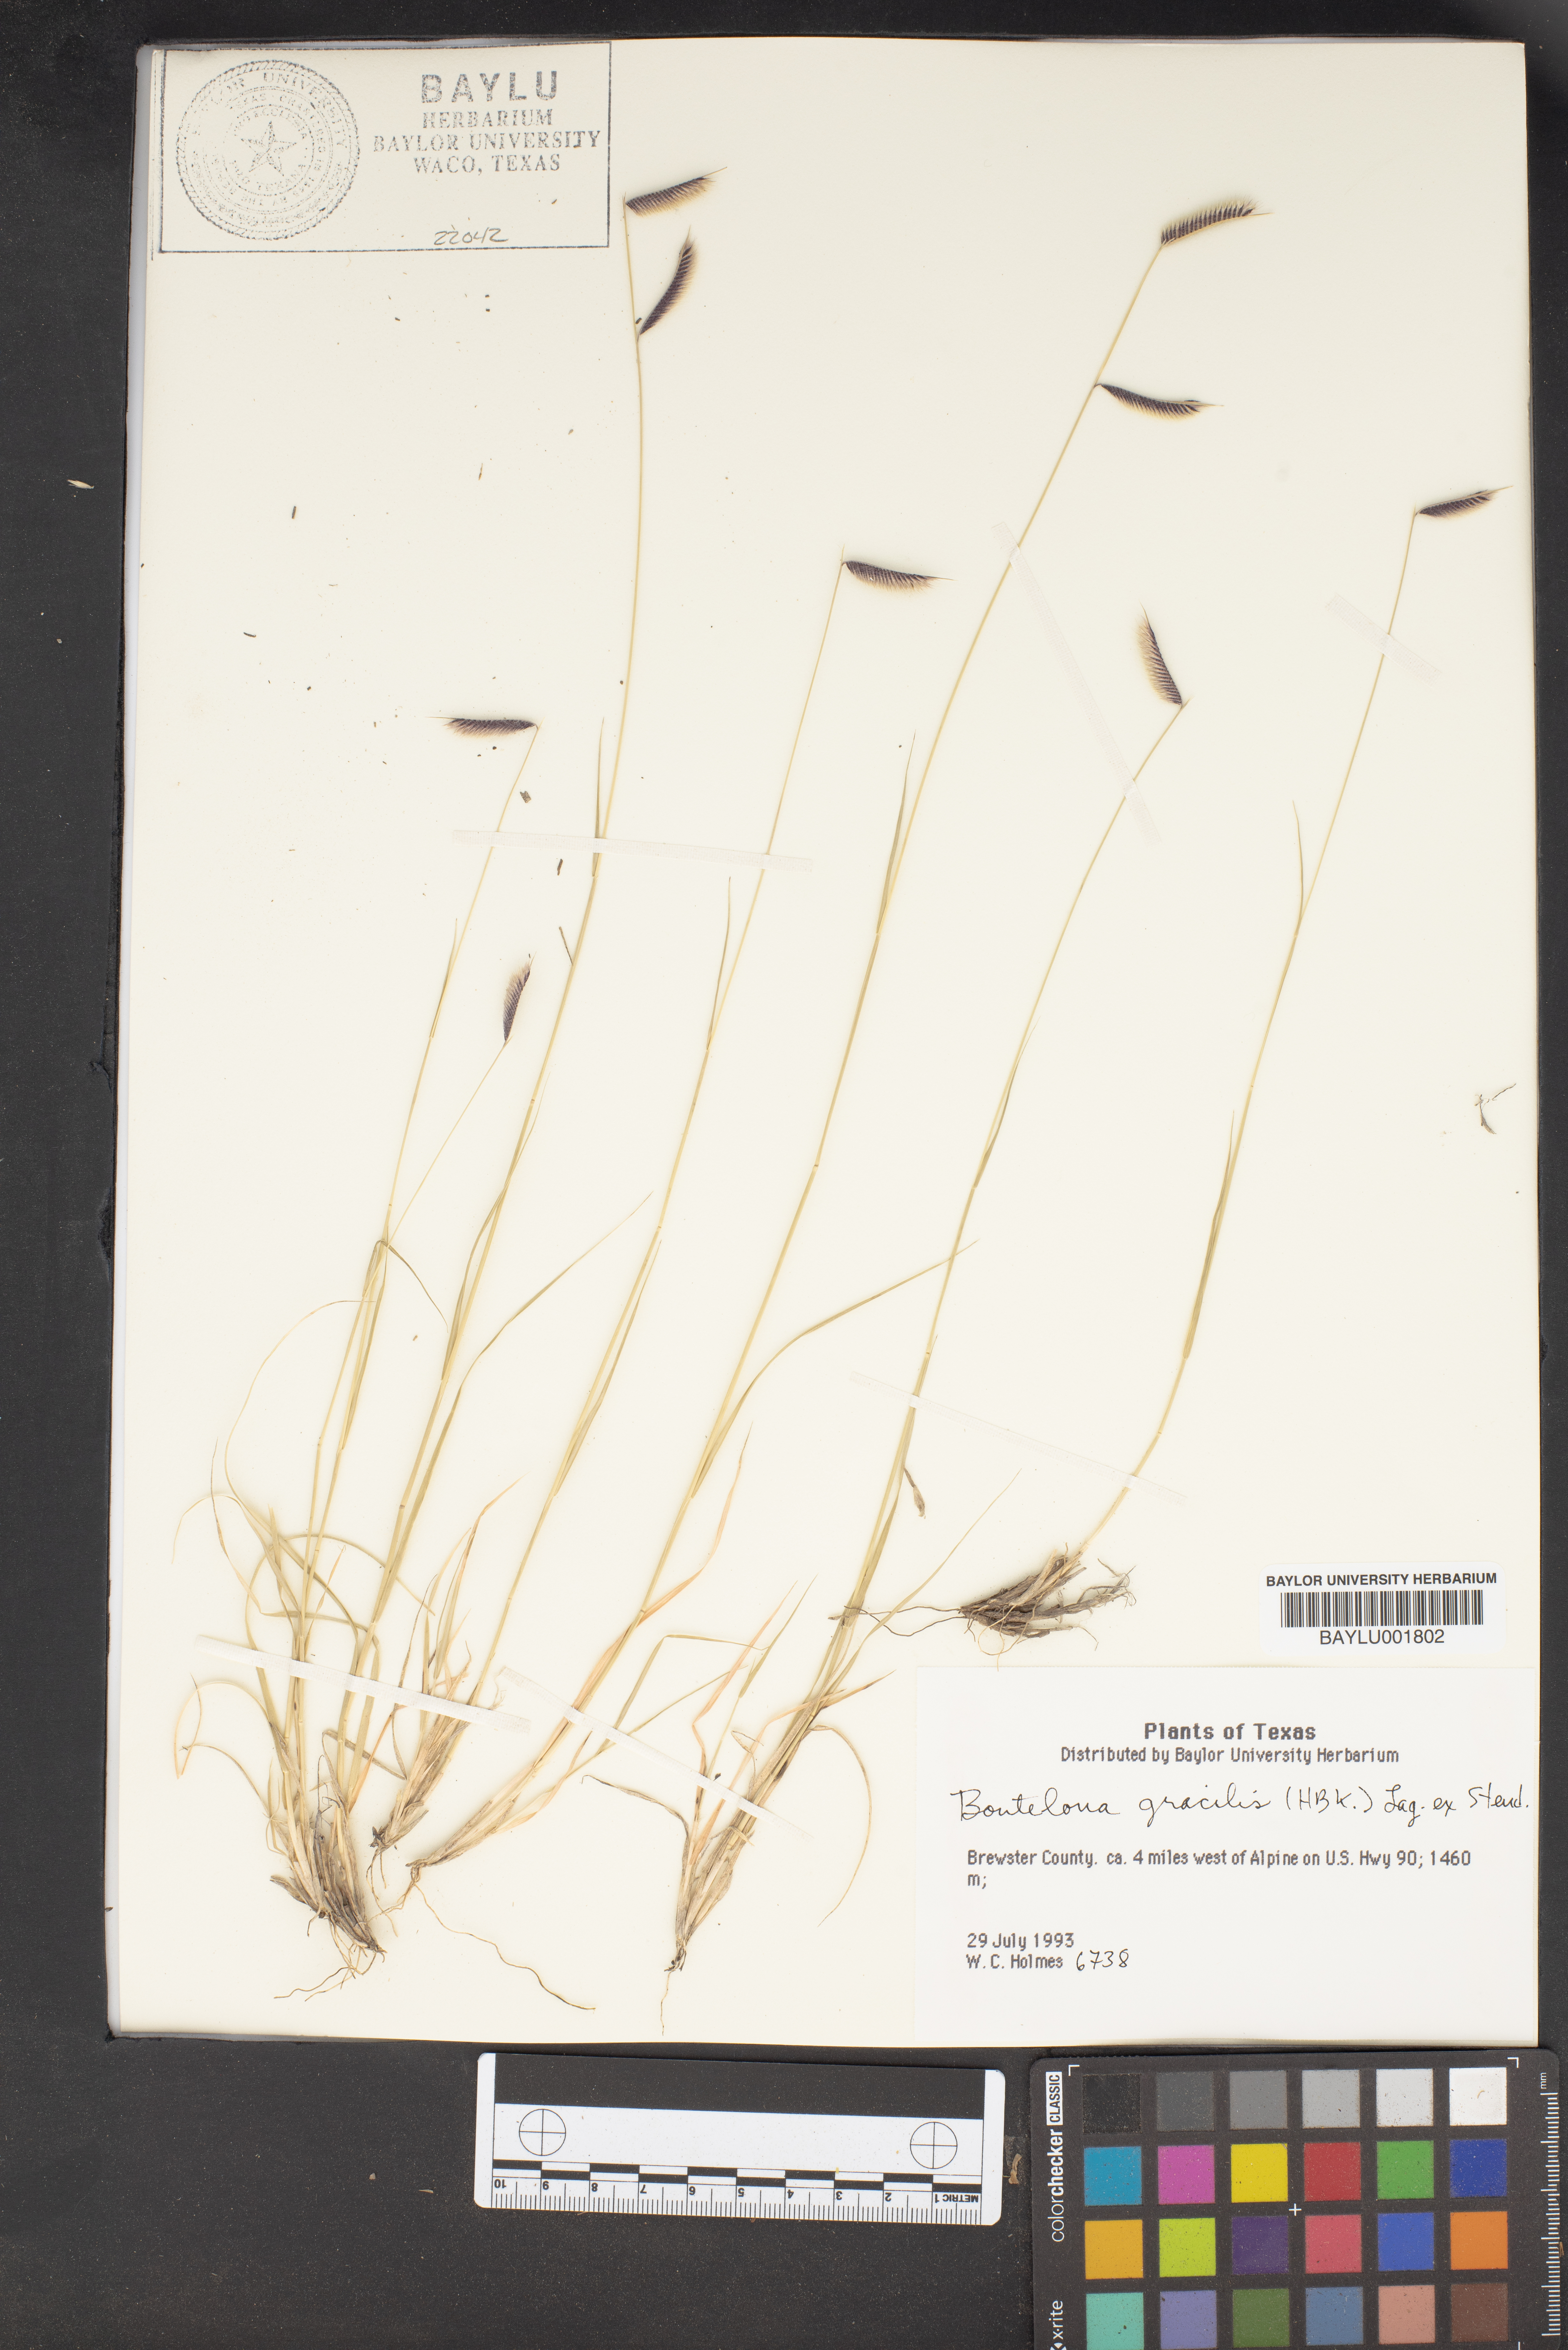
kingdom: Plantae
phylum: Tracheophyta
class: Liliopsida
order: Poales
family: Poaceae
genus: Bouteloua
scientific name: Bouteloua gracilis
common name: Blue grama
